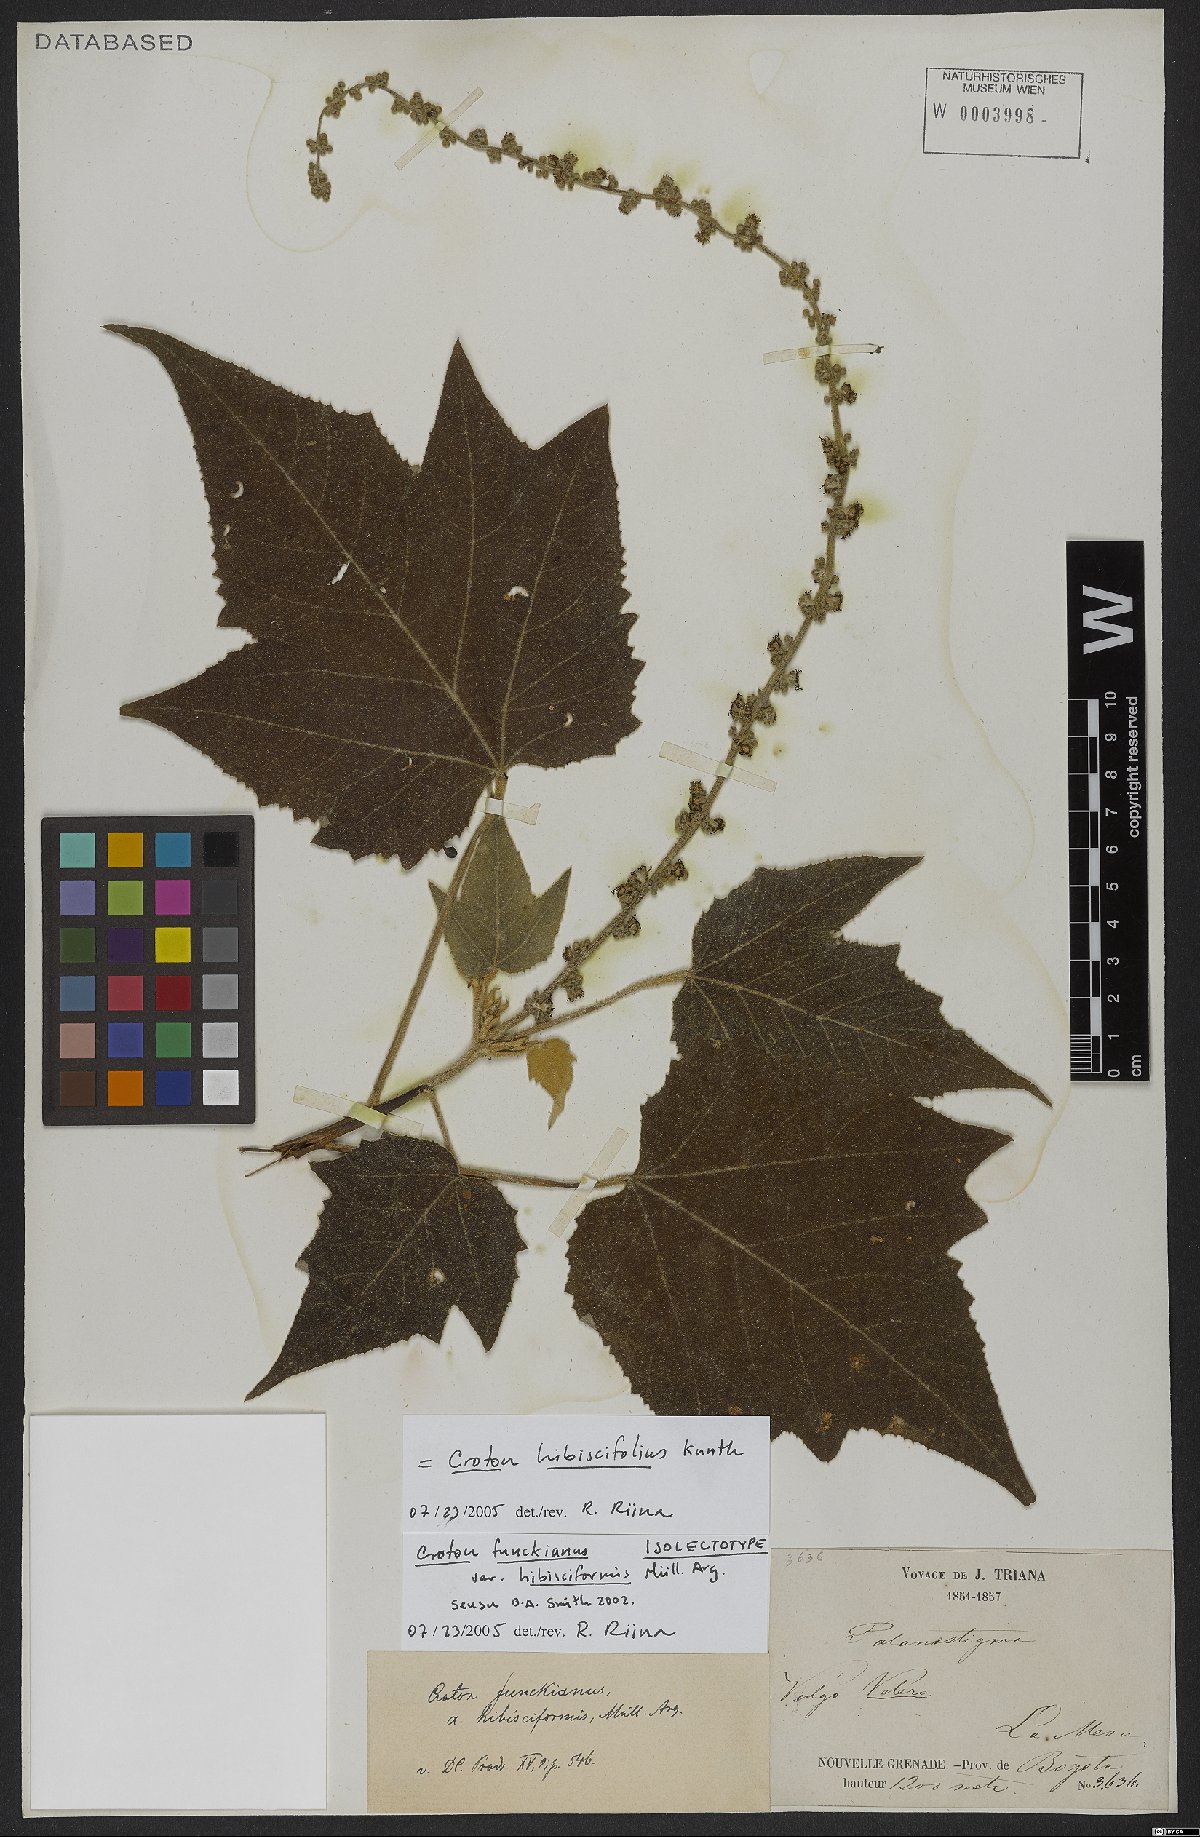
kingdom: Plantae
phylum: Tracheophyta
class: Magnoliopsida
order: Malpighiales
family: Euphorbiaceae
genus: Croton
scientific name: Croton hibiscifolius
